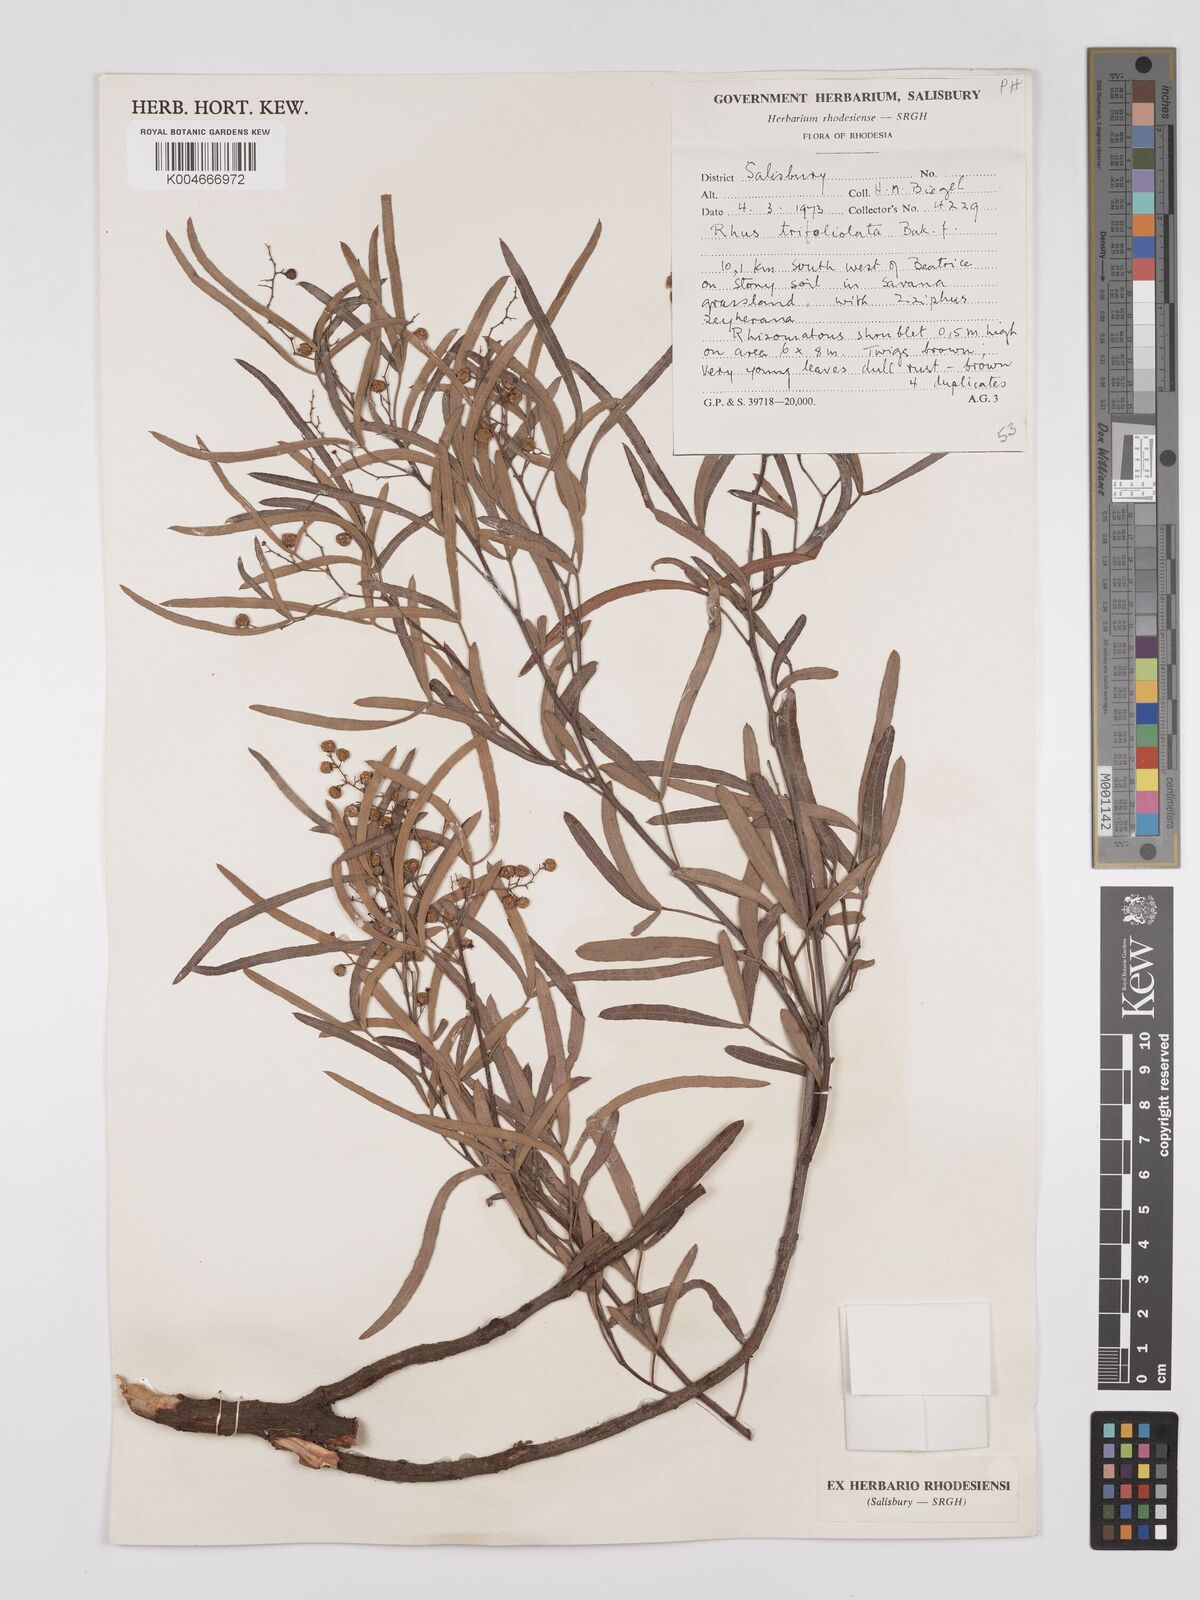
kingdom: Plantae
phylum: Tracheophyta
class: Magnoliopsida
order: Sapindales
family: Anacardiaceae
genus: Searsia
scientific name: Searsia magalismontana
